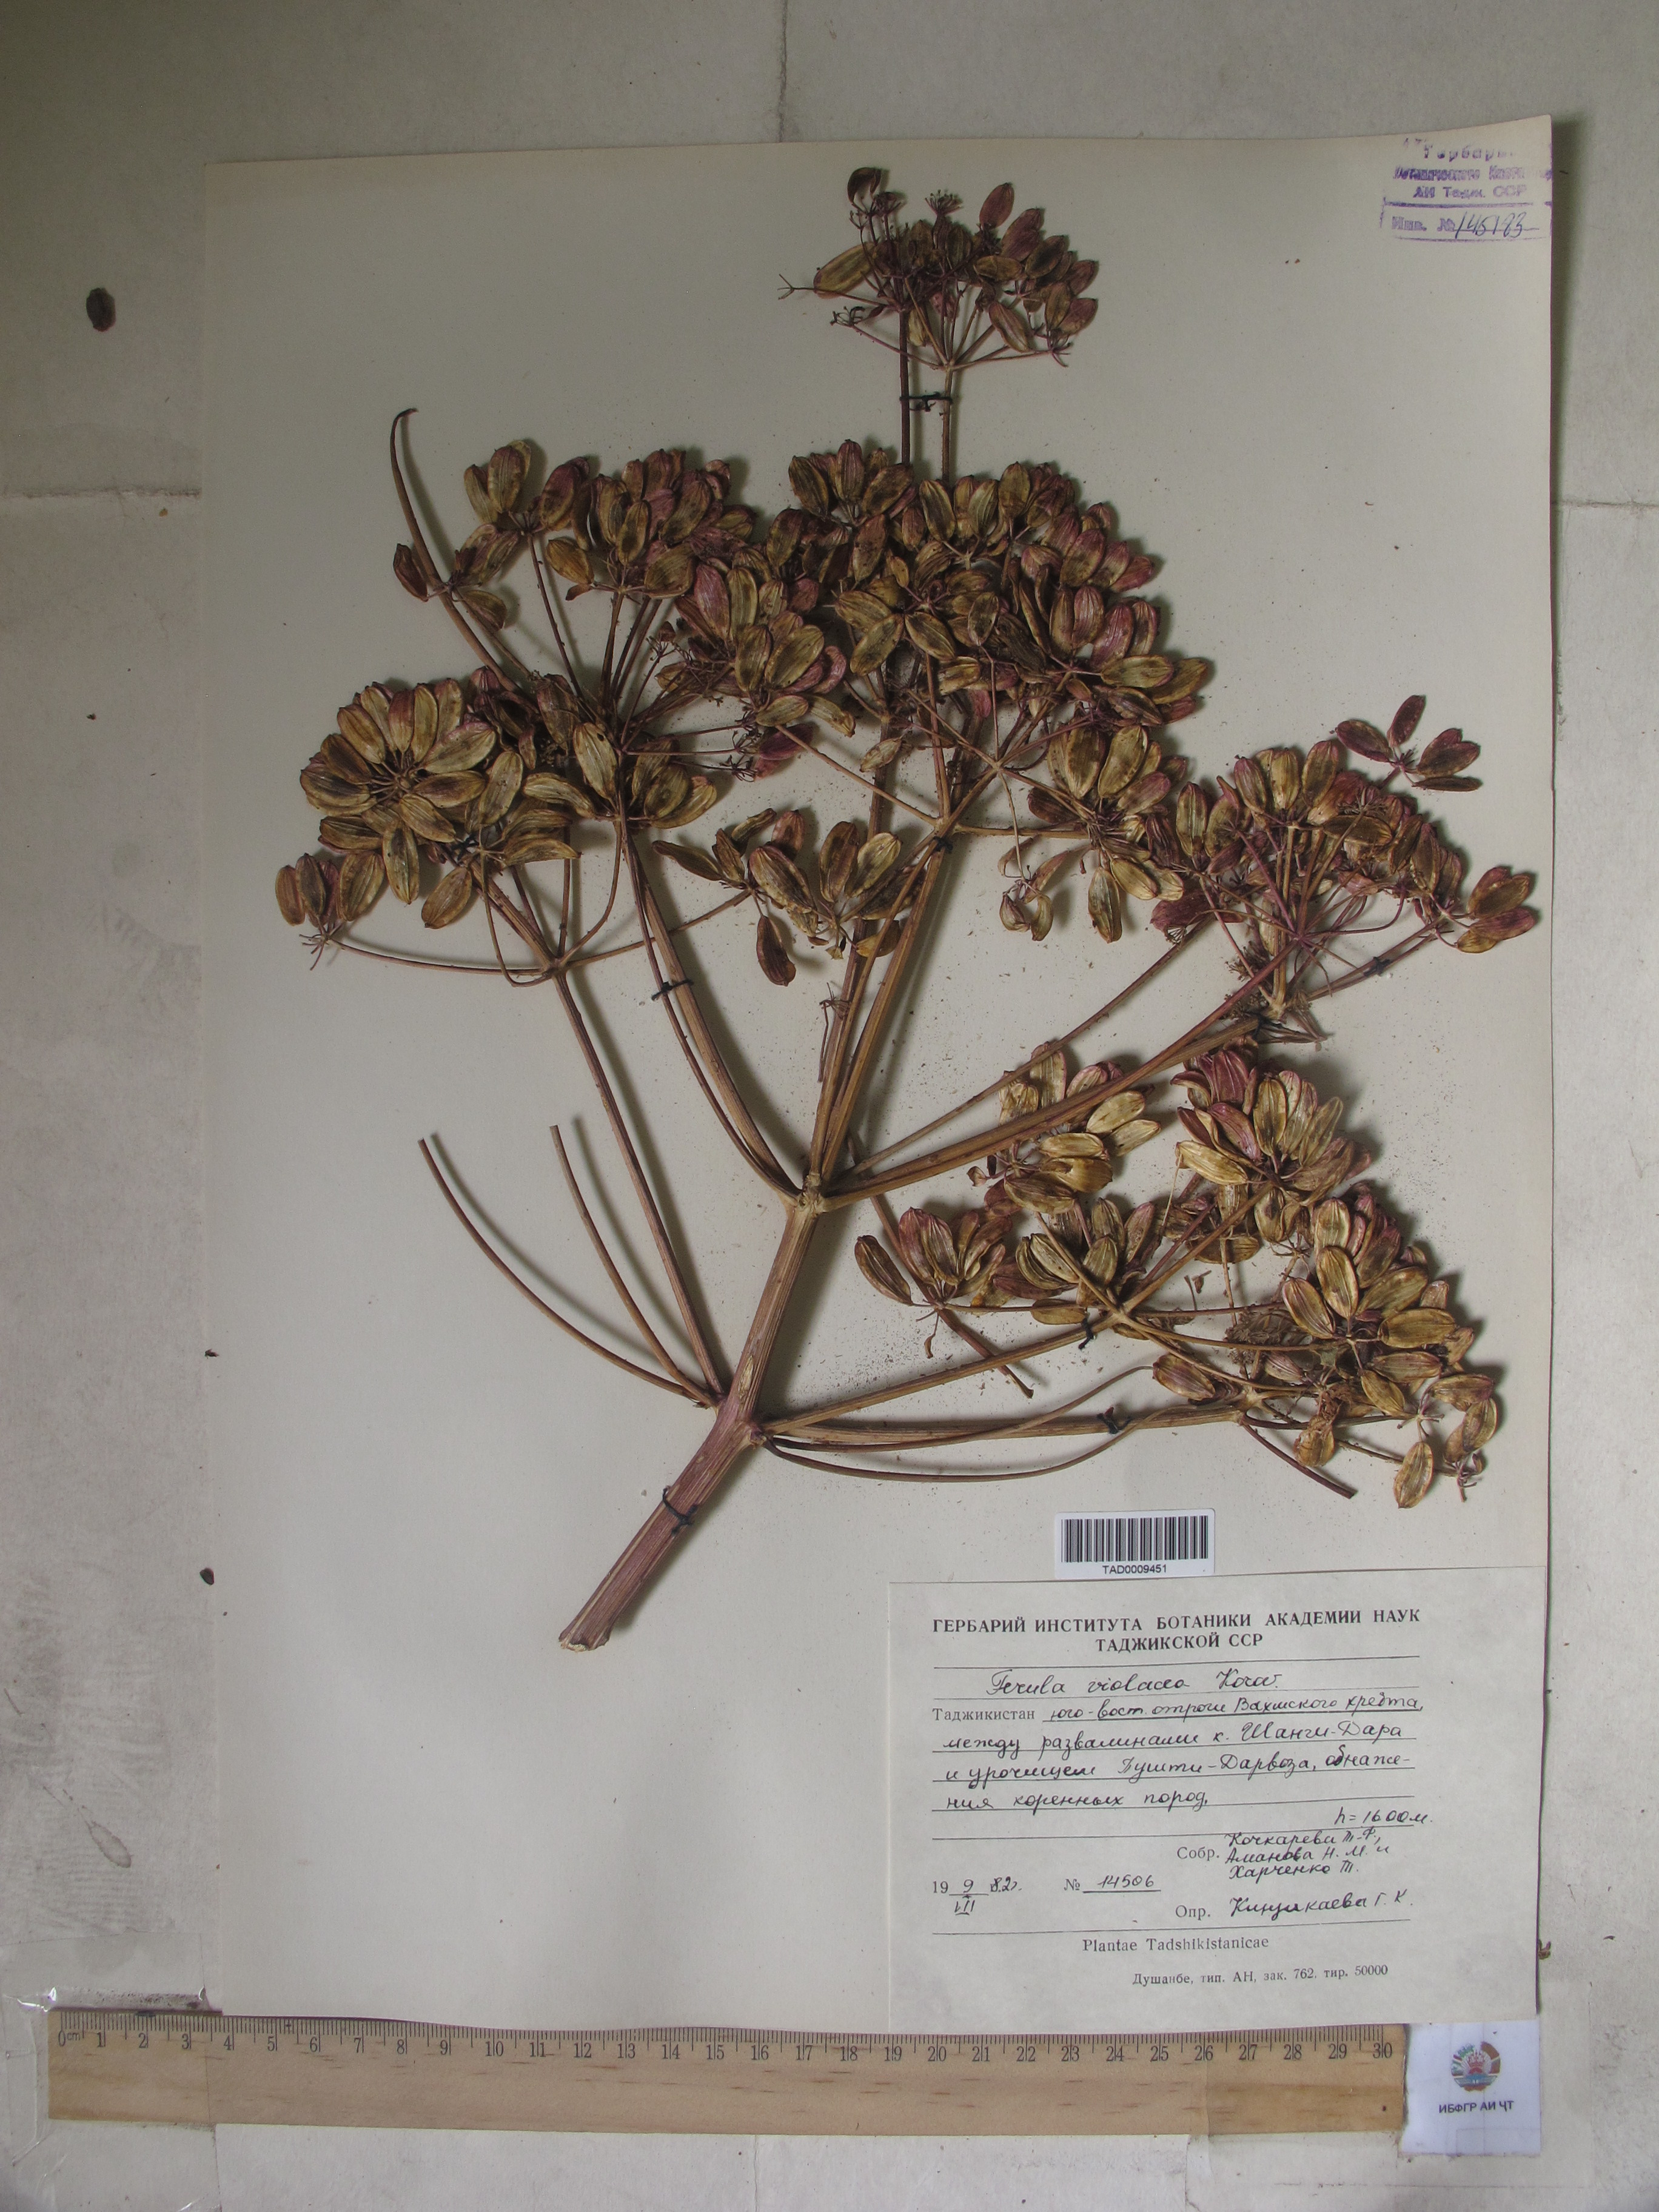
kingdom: Plantae
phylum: Tracheophyta
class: Magnoliopsida
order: Apiales
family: Apiaceae
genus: Ferula
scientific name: Ferula violacea
